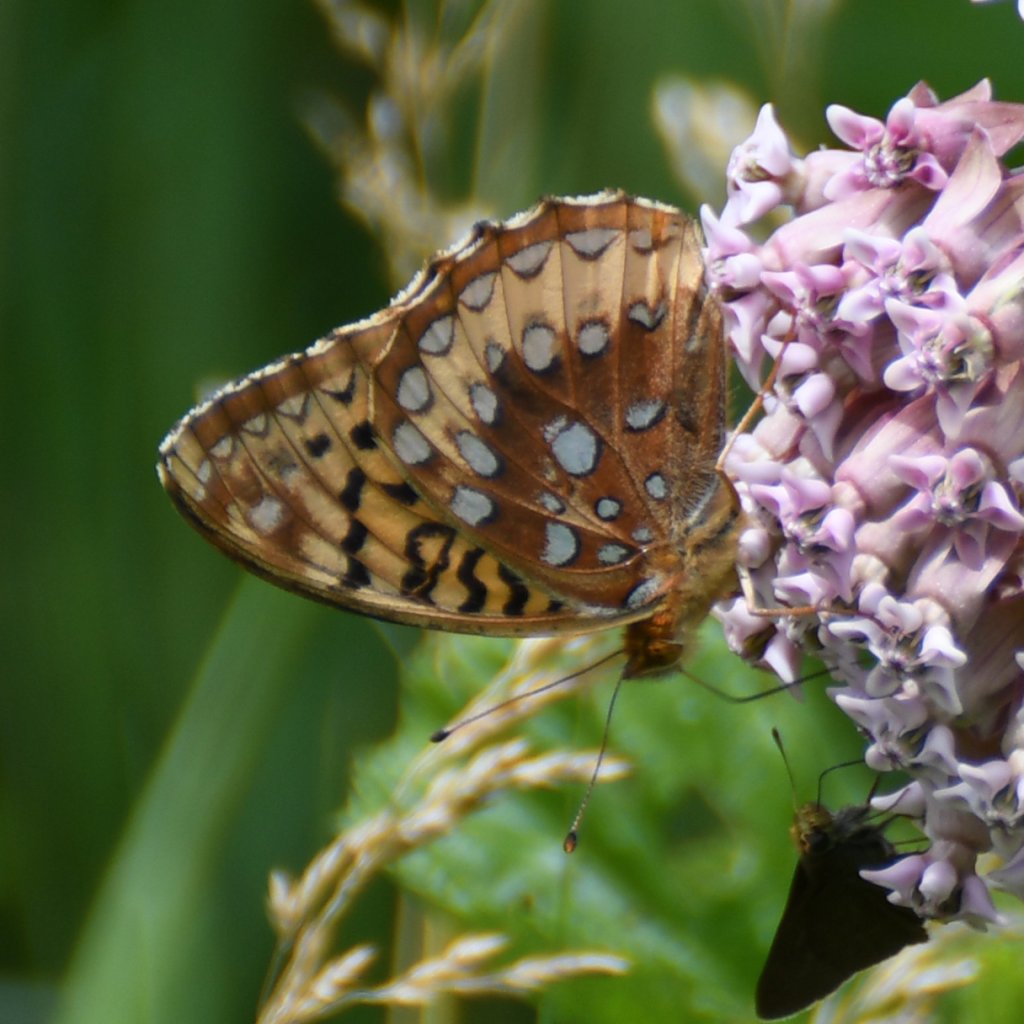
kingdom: Animalia
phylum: Arthropoda
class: Insecta
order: Lepidoptera
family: Nymphalidae
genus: Speyeria
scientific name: Speyeria cybele
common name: Great Spangled Fritillary
